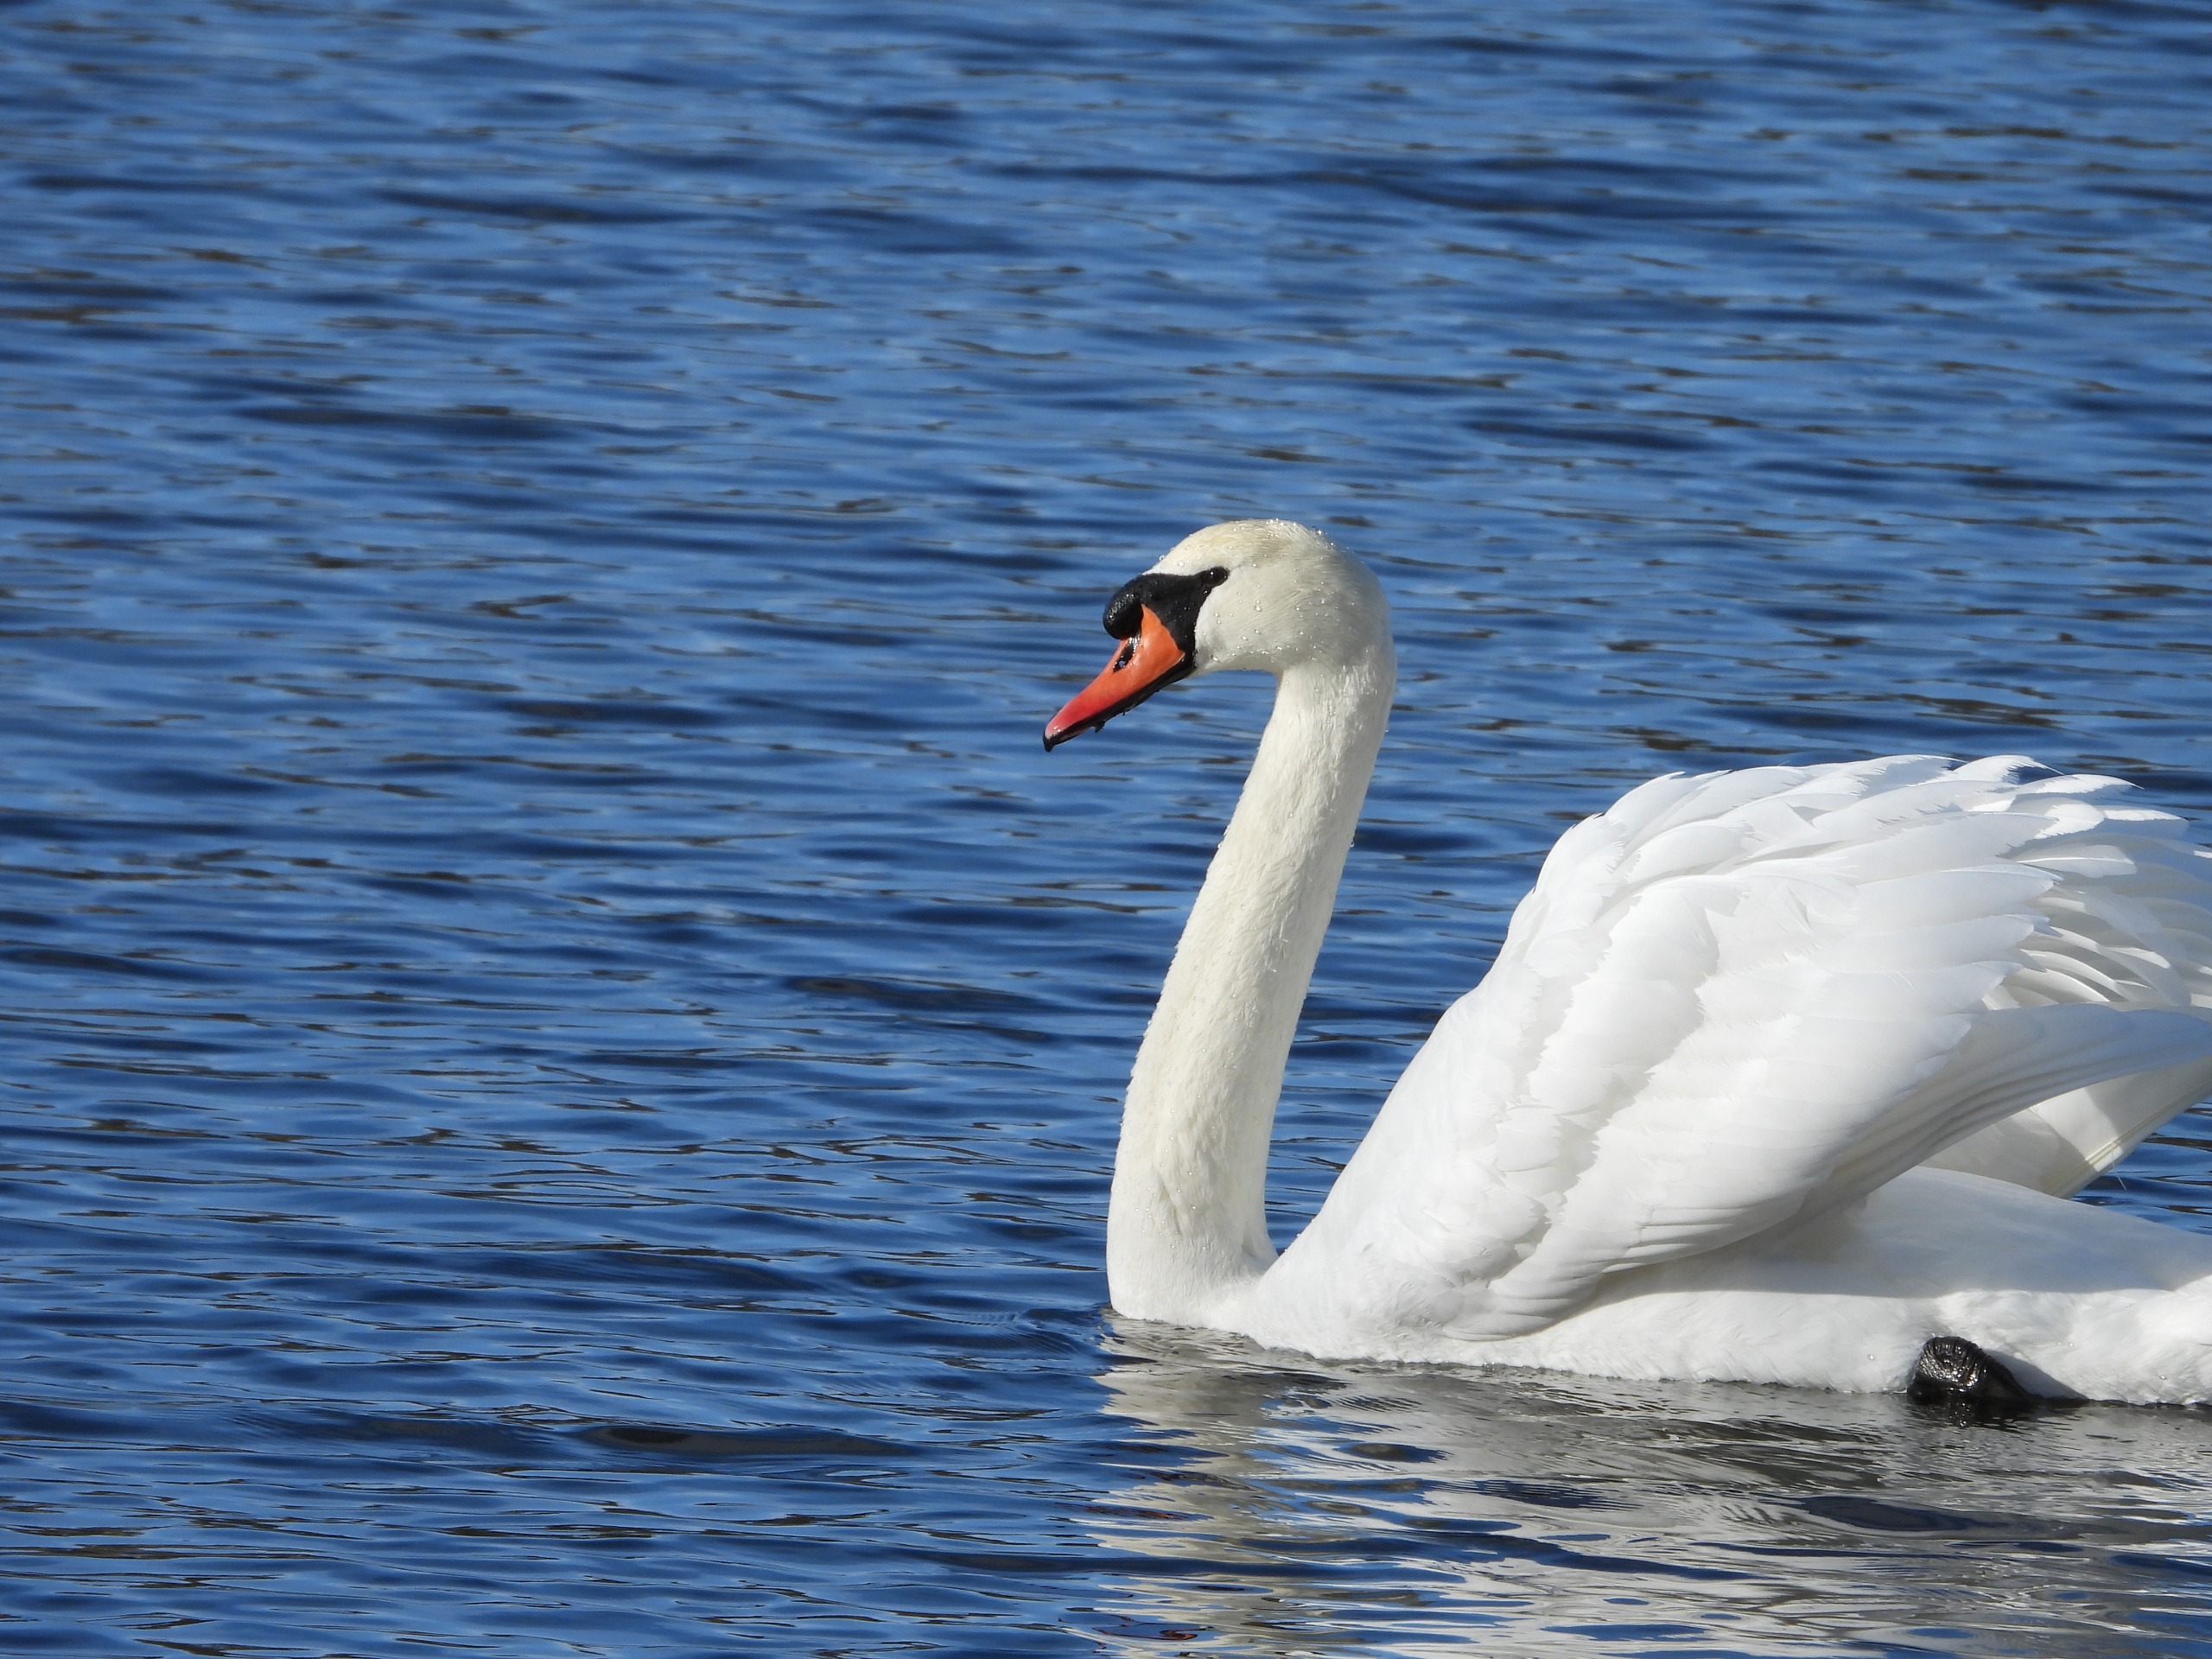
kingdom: Animalia
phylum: Chordata
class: Aves
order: Anseriformes
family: Anatidae
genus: Cygnus
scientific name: Cygnus olor
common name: Knopsvane
